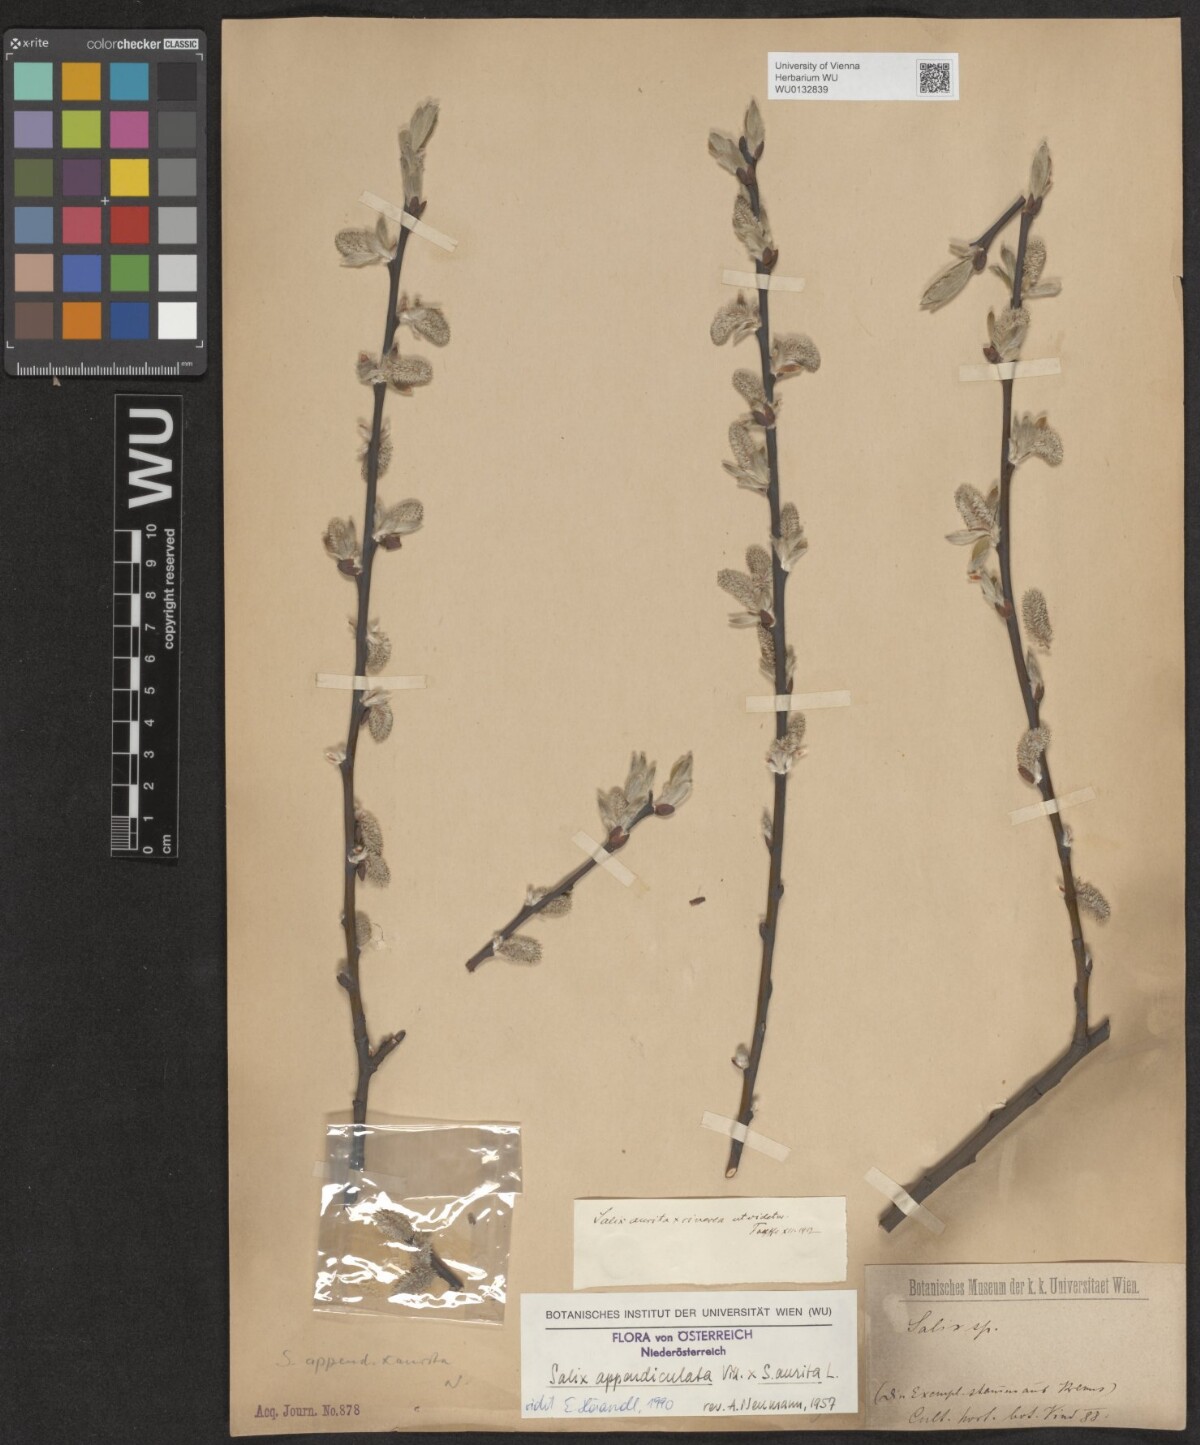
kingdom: Plantae
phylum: Tracheophyta
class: Magnoliopsida
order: Malpighiales
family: Salicaceae
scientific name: Salicaceae
